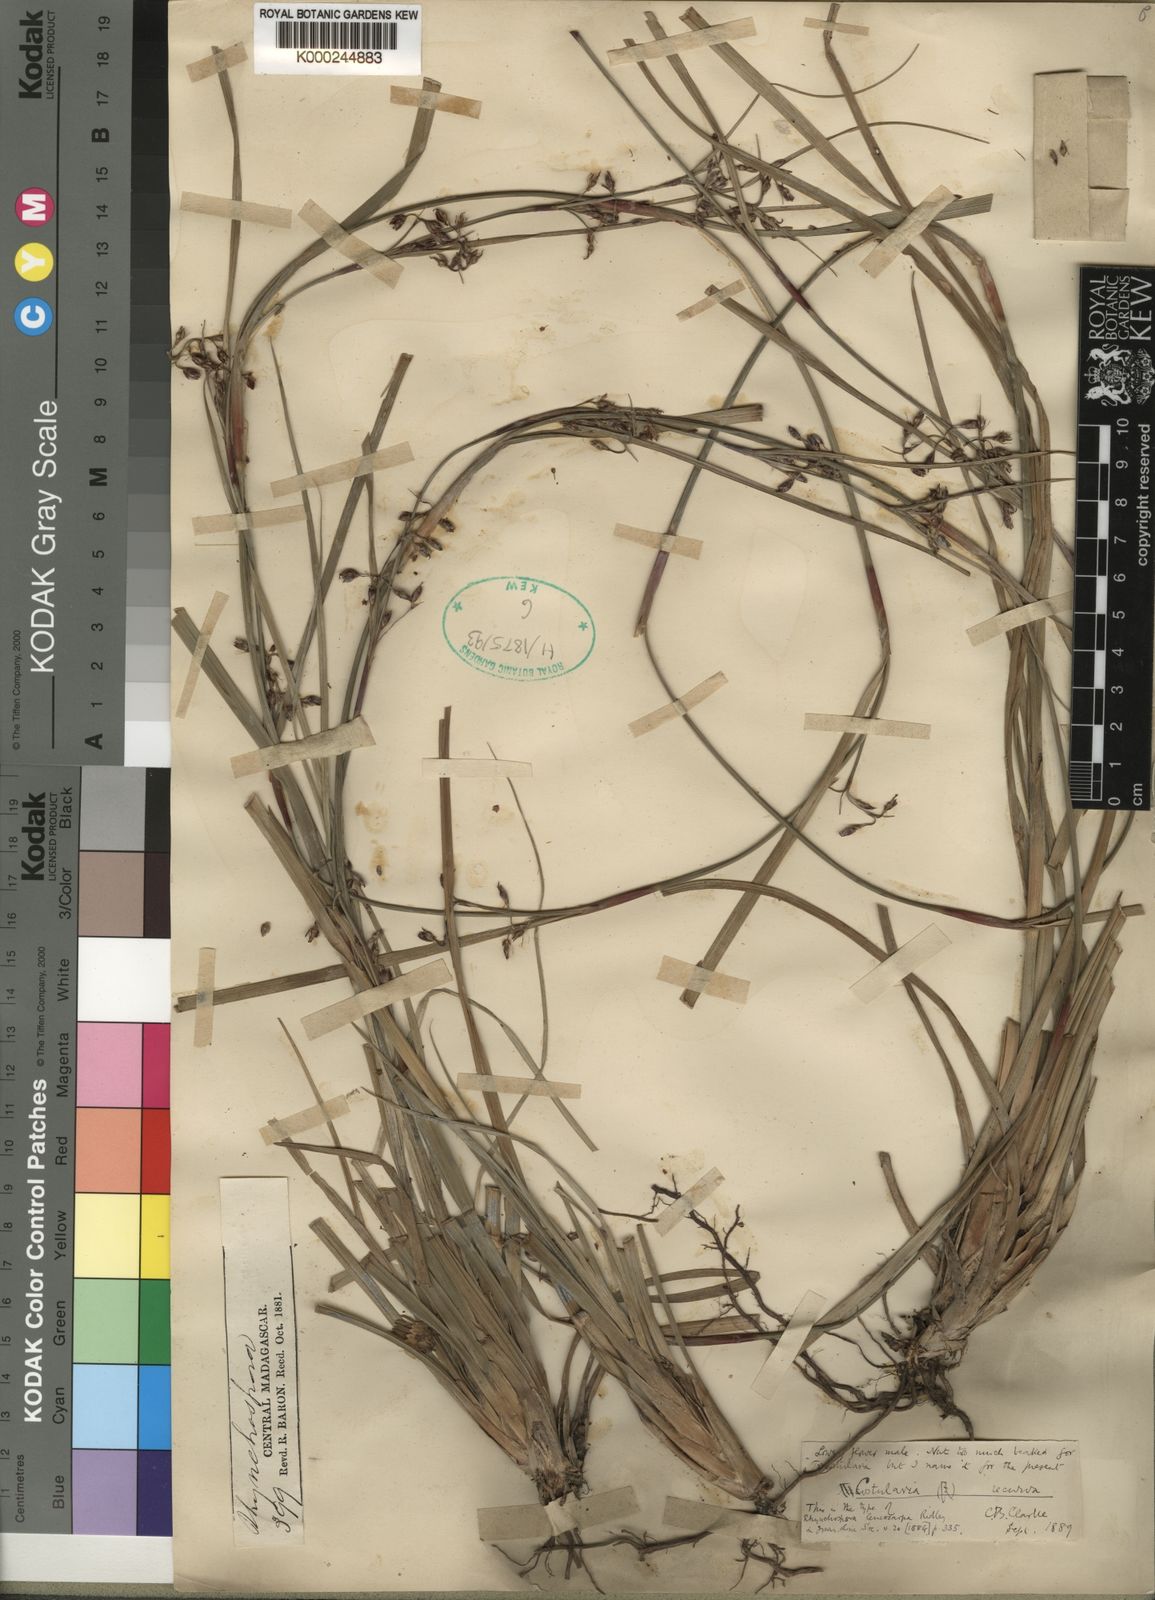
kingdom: Plantae
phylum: Tracheophyta
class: Liliopsida
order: Poales
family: Cyperaceae
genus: Costularia
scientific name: Costularia leucocarpa
